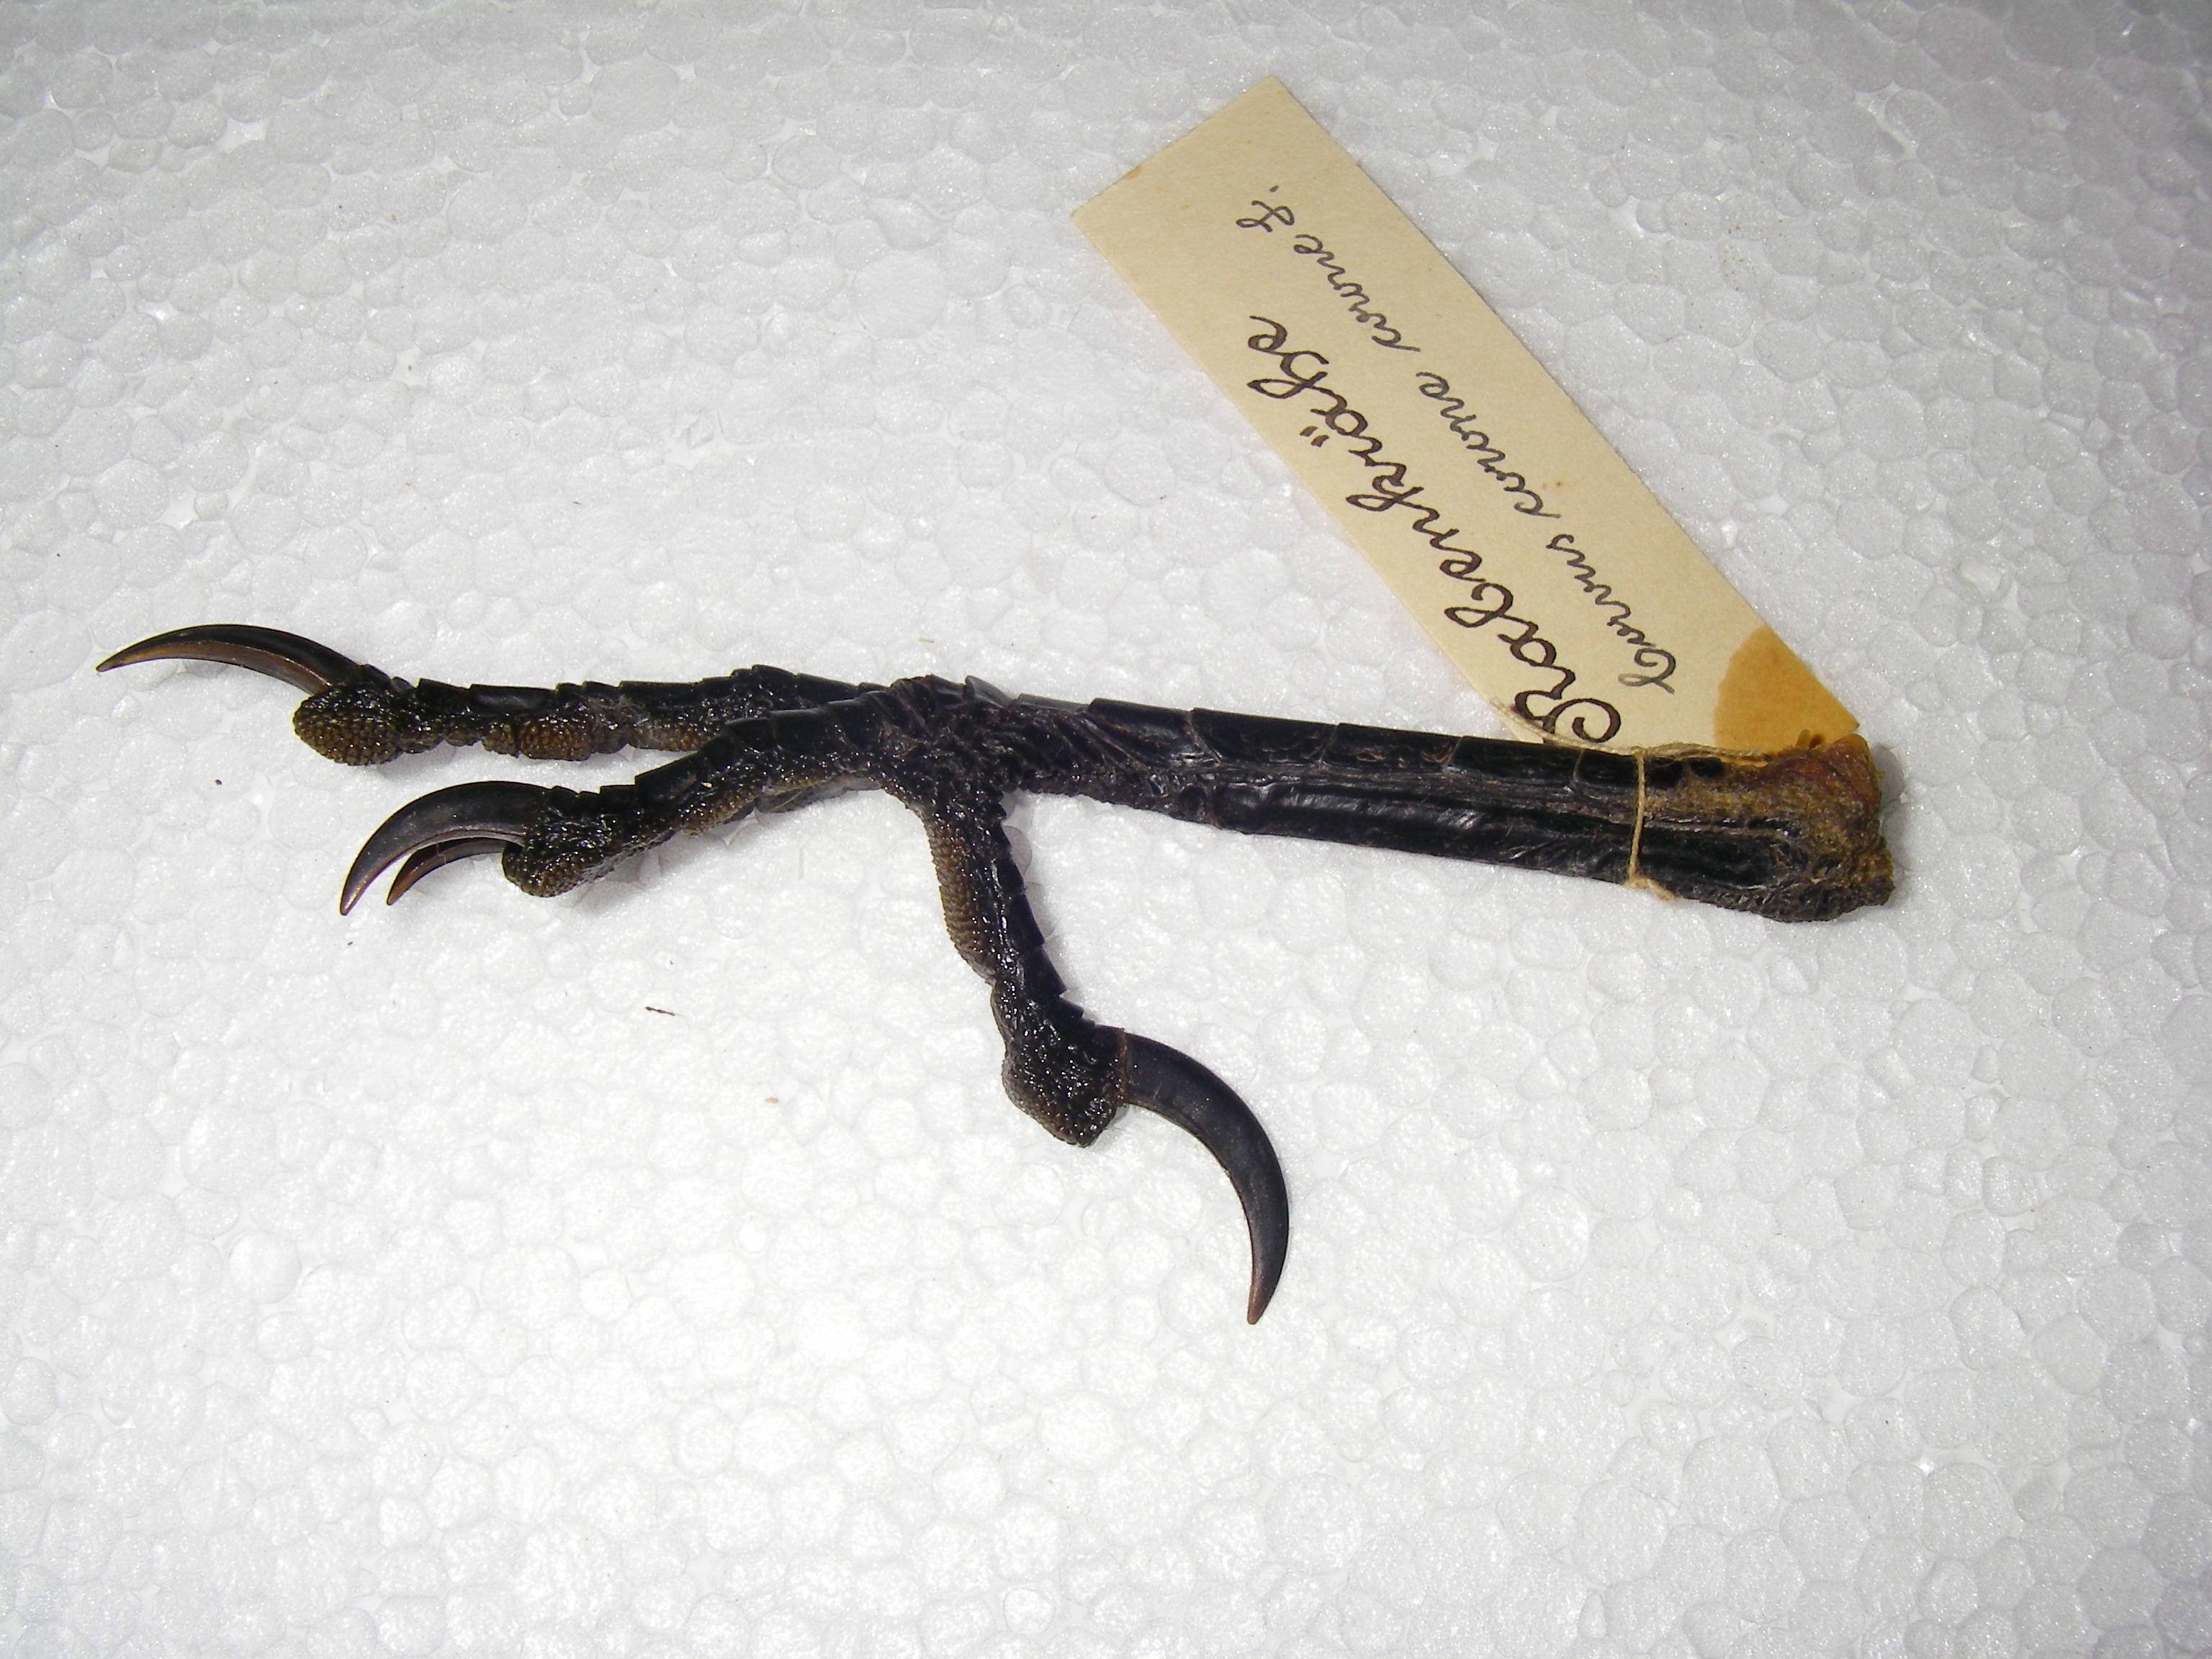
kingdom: Animalia
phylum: Chordata
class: Aves
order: Passeriformes
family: Corvidae
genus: Corvus
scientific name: Corvus corone
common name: Carrion crow
